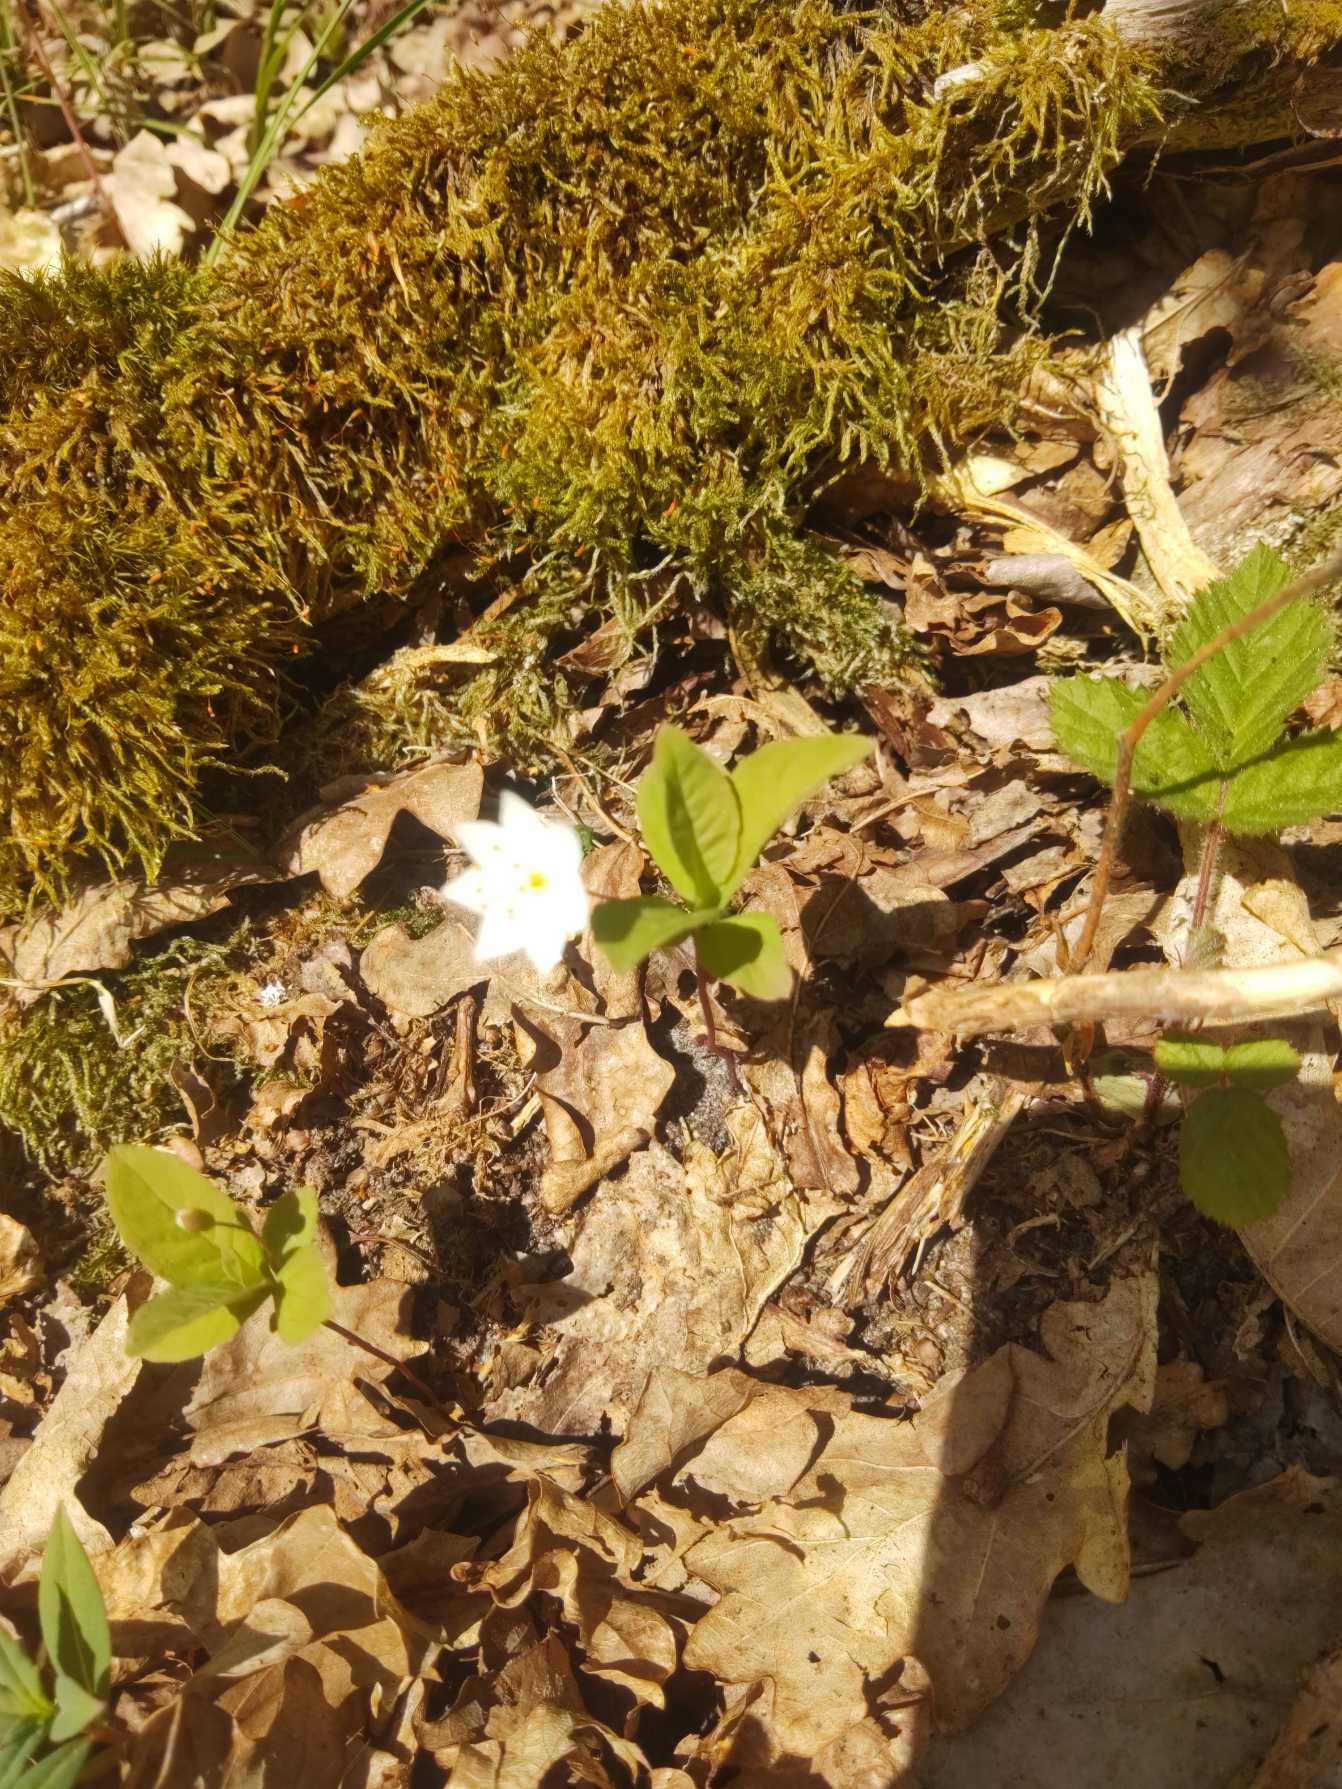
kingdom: Plantae
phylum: Tracheophyta
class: Magnoliopsida
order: Ericales
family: Primulaceae
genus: Lysimachia
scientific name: Lysimachia europaea
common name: Skovstjerne
